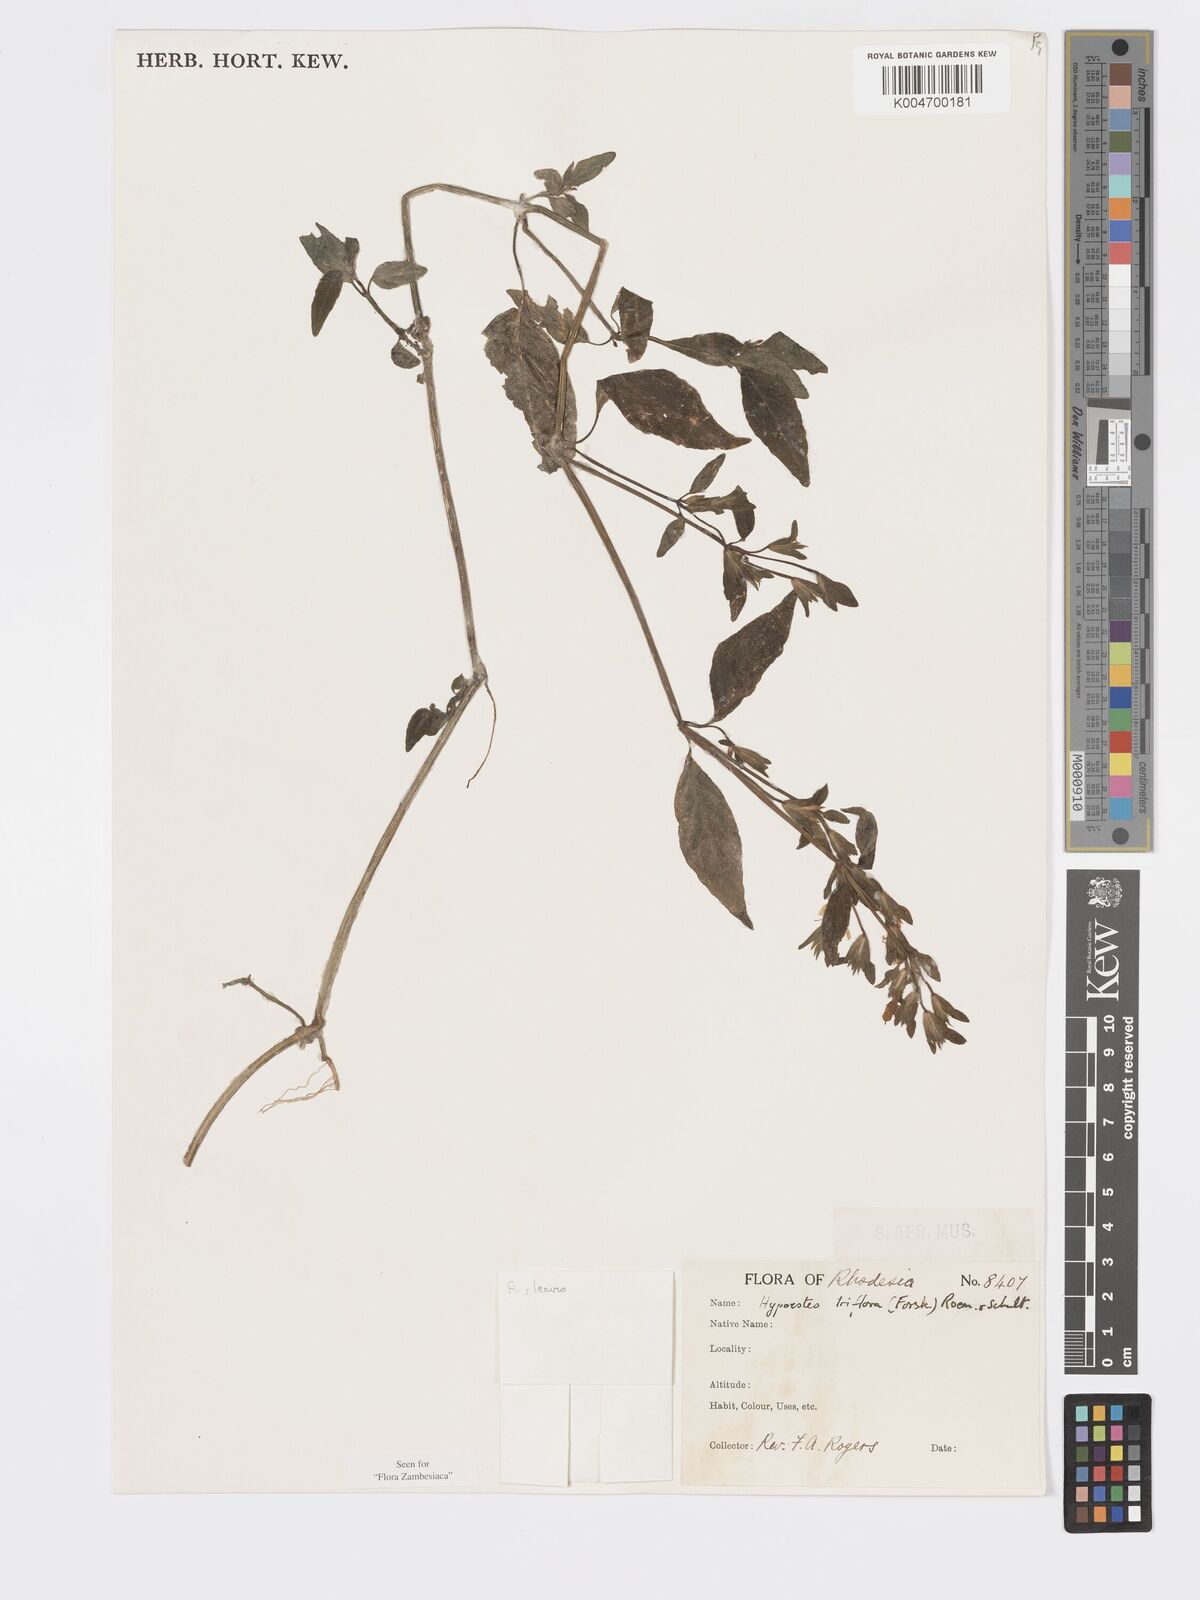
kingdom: Plantae
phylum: Tracheophyta
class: Magnoliopsida
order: Lamiales
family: Acanthaceae
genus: Hypoestes
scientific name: Hypoestes triflora
